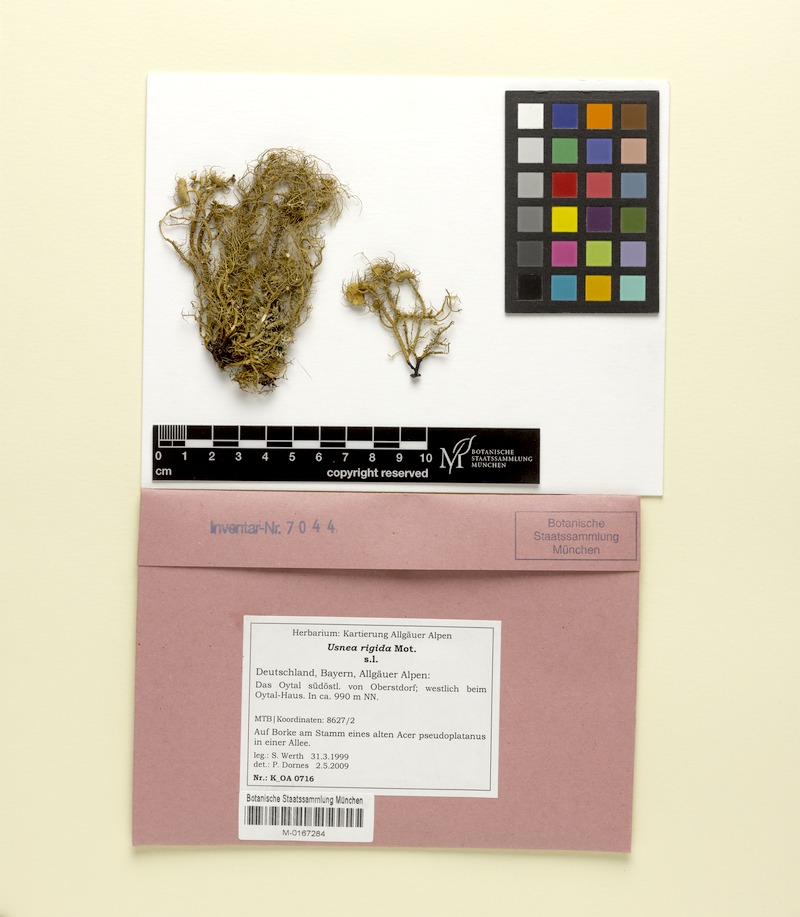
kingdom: Fungi
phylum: Ascomycota
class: Lecanoromycetes
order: Lecanorales
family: Parmeliaceae
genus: Usnea
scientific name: Usnea quasirigida
